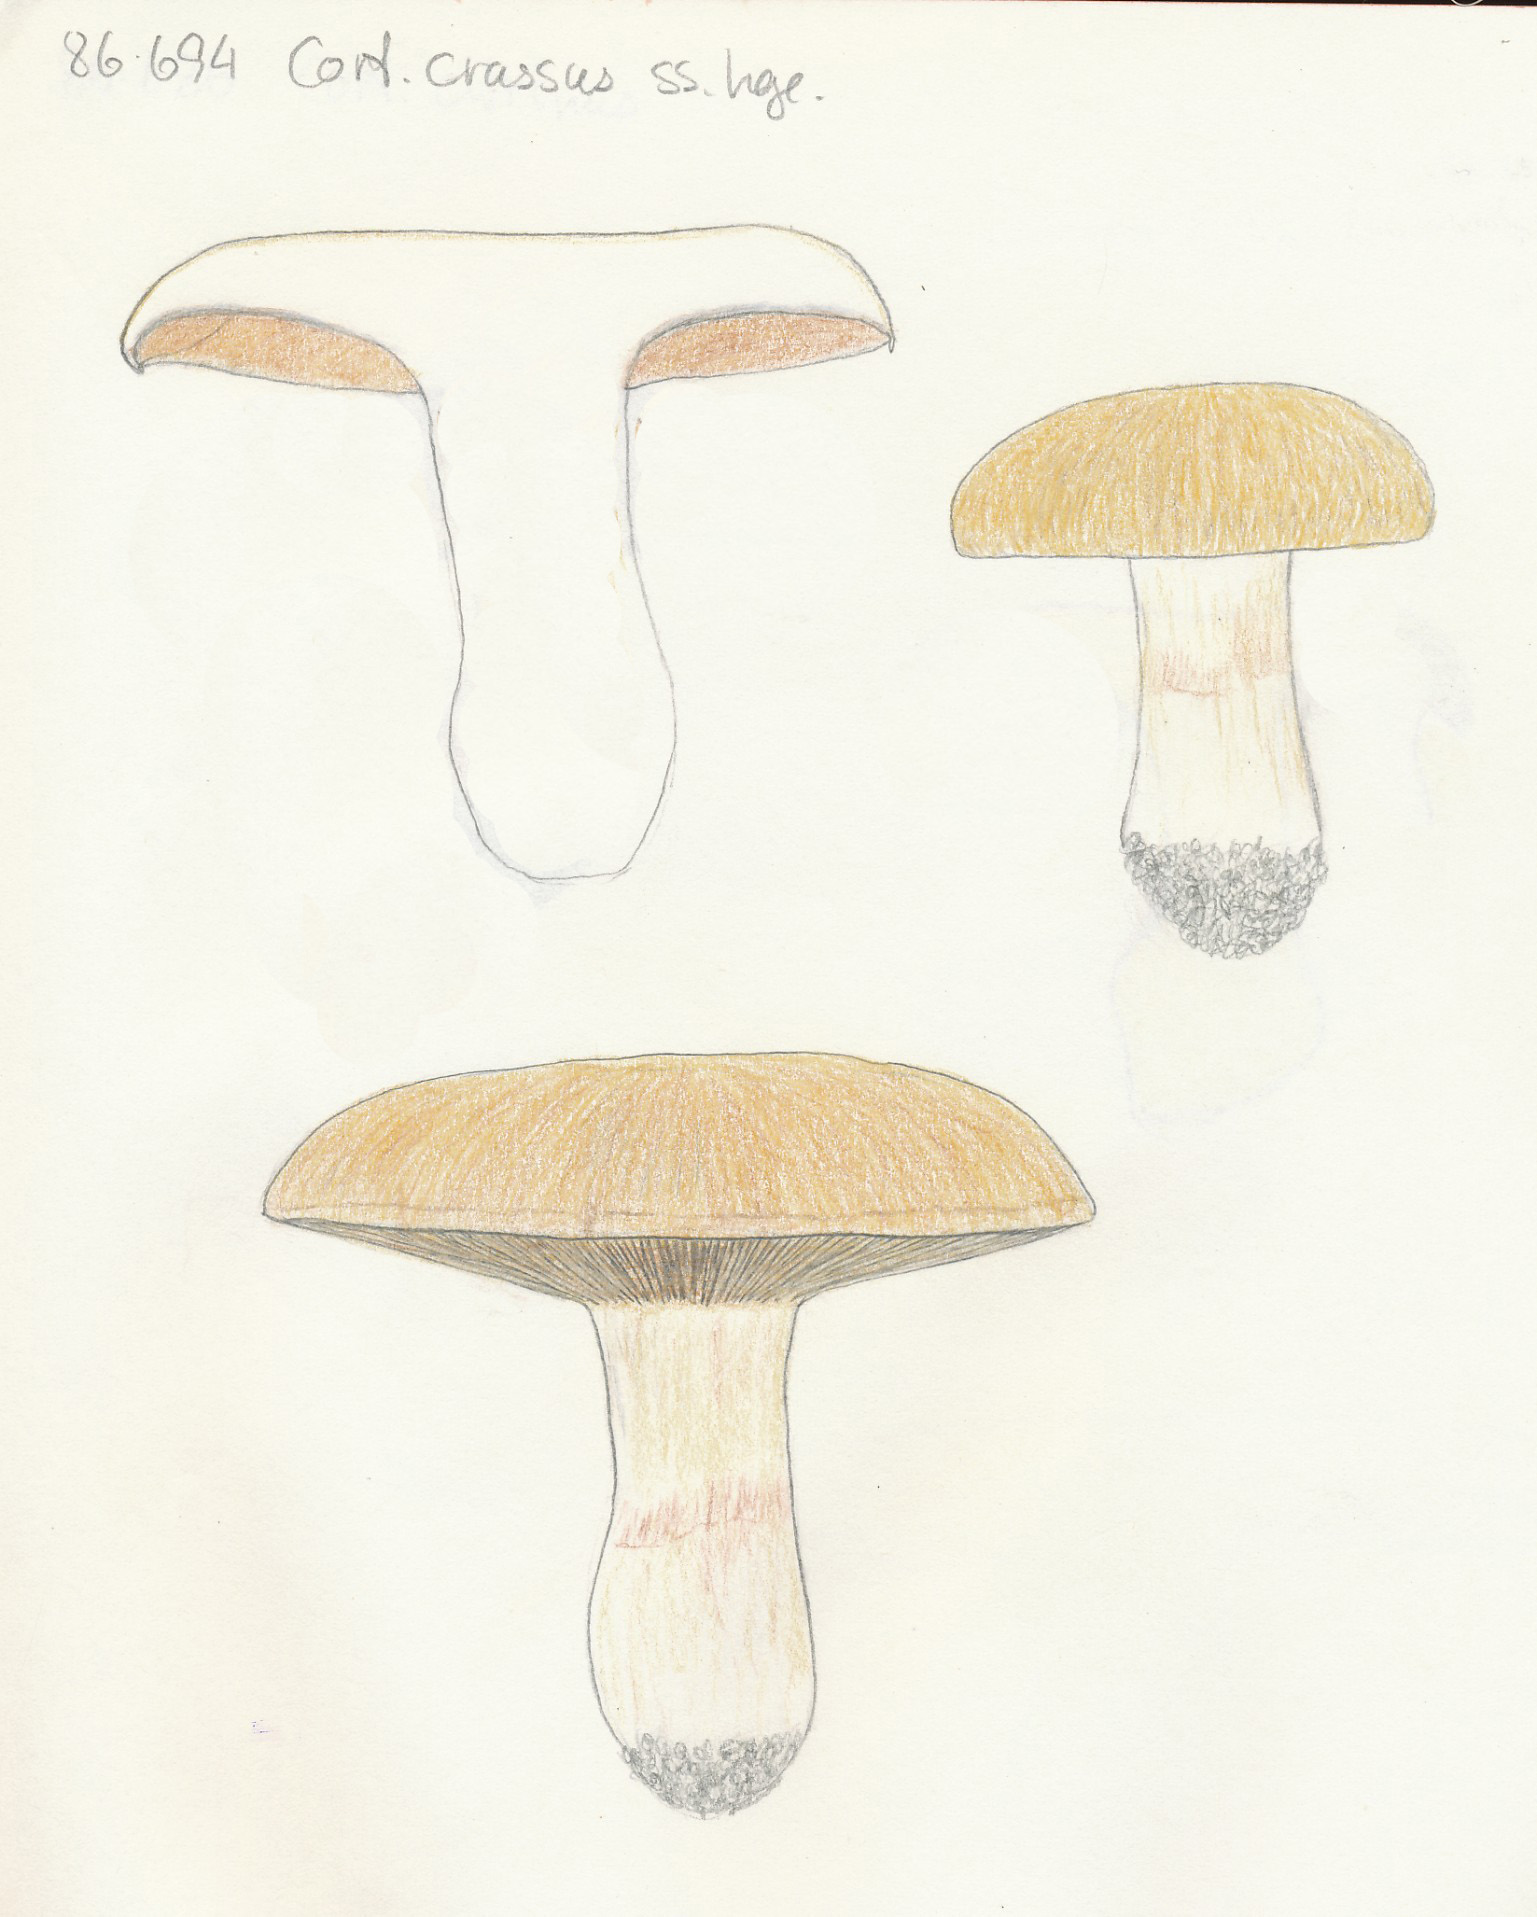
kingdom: Fungi
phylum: Basidiomycota
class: Agaricomycetes
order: Agaricales
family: Cortinariaceae
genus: Phlegmacium
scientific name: Phlegmacium areni-silvae
